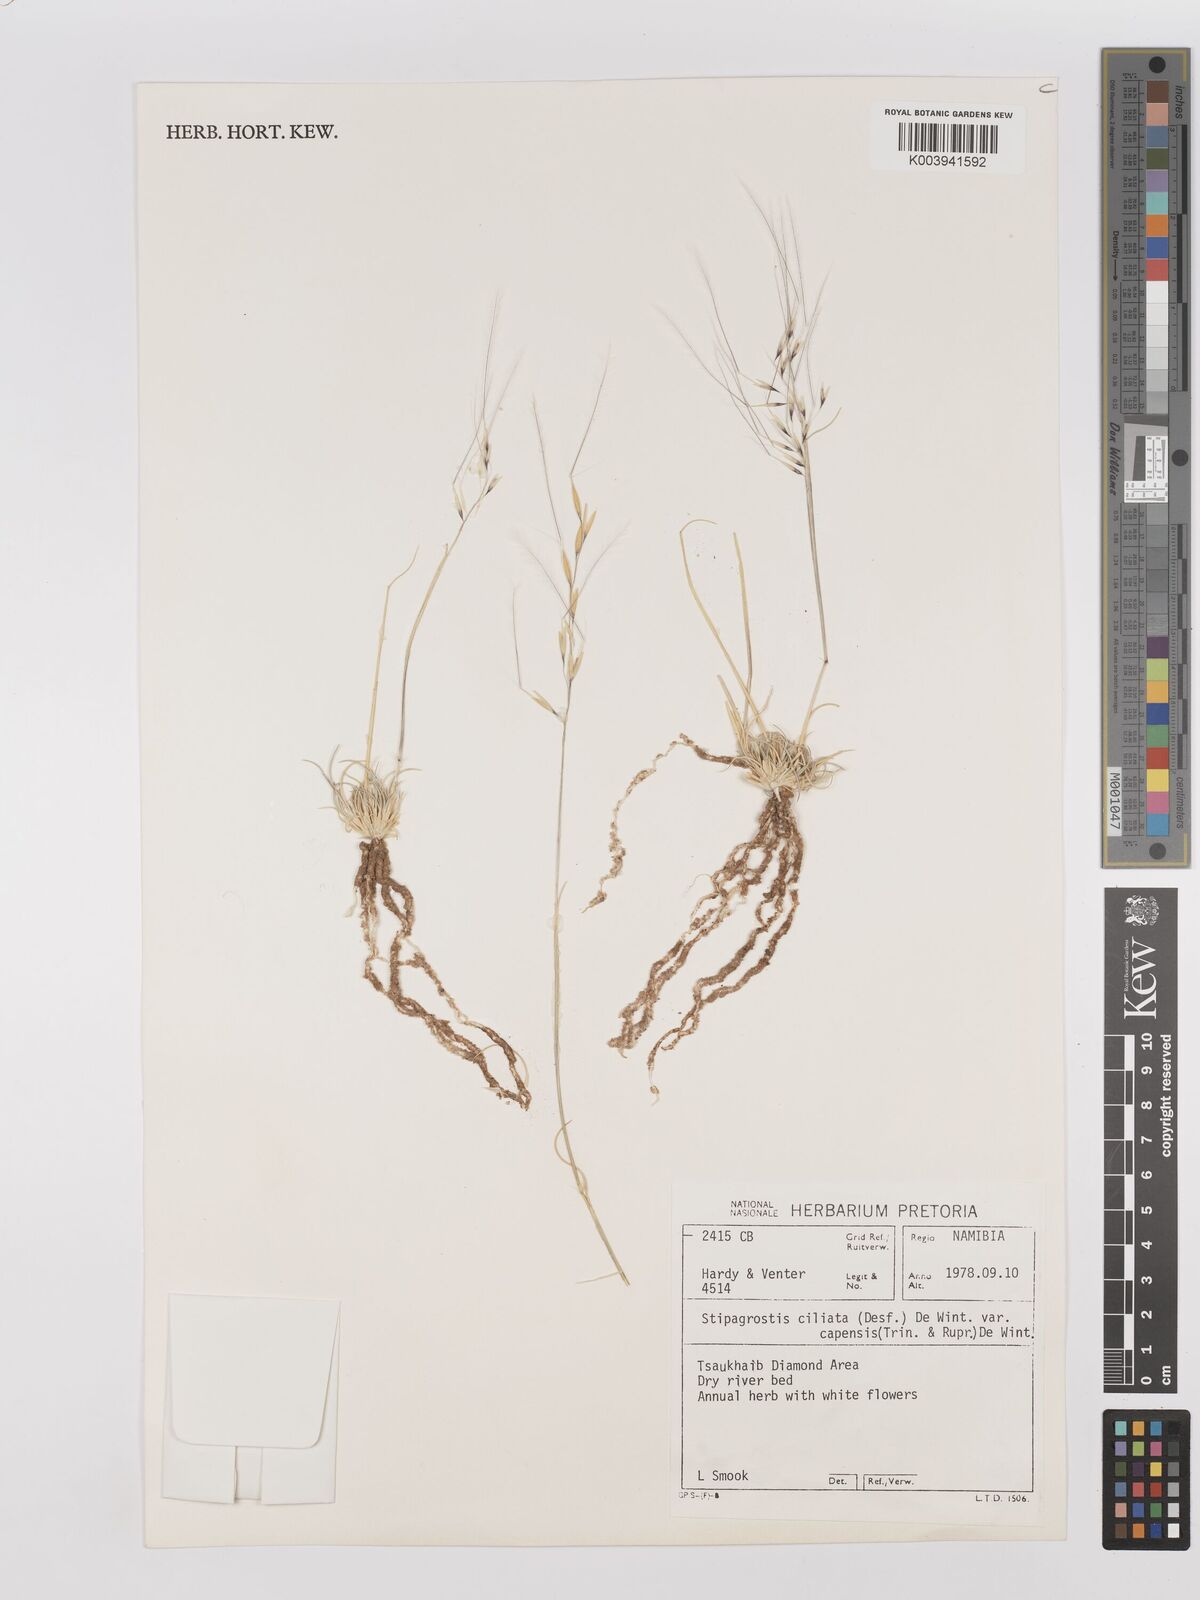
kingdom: Plantae
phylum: Tracheophyta
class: Liliopsida
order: Poales
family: Poaceae
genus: Stipagrostis
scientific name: Stipagrostis ciliata
